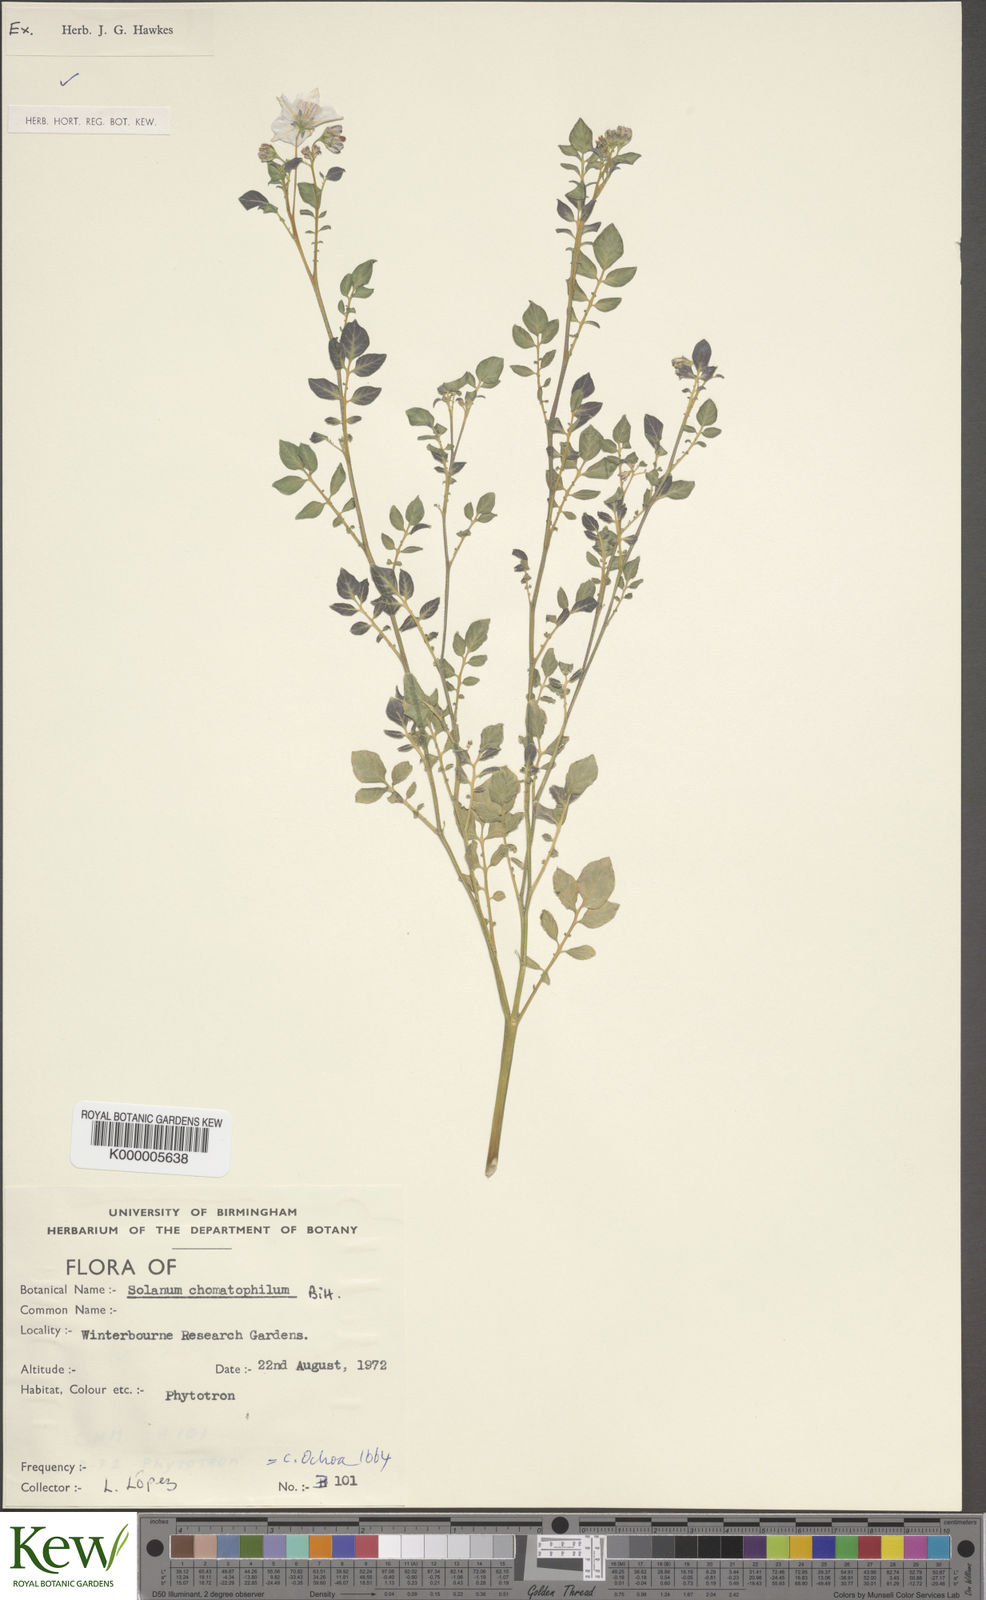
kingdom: Plantae
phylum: Tracheophyta
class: Magnoliopsida
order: Solanales
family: Solanaceae
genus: Solanum
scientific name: Solanum chomatophilum
